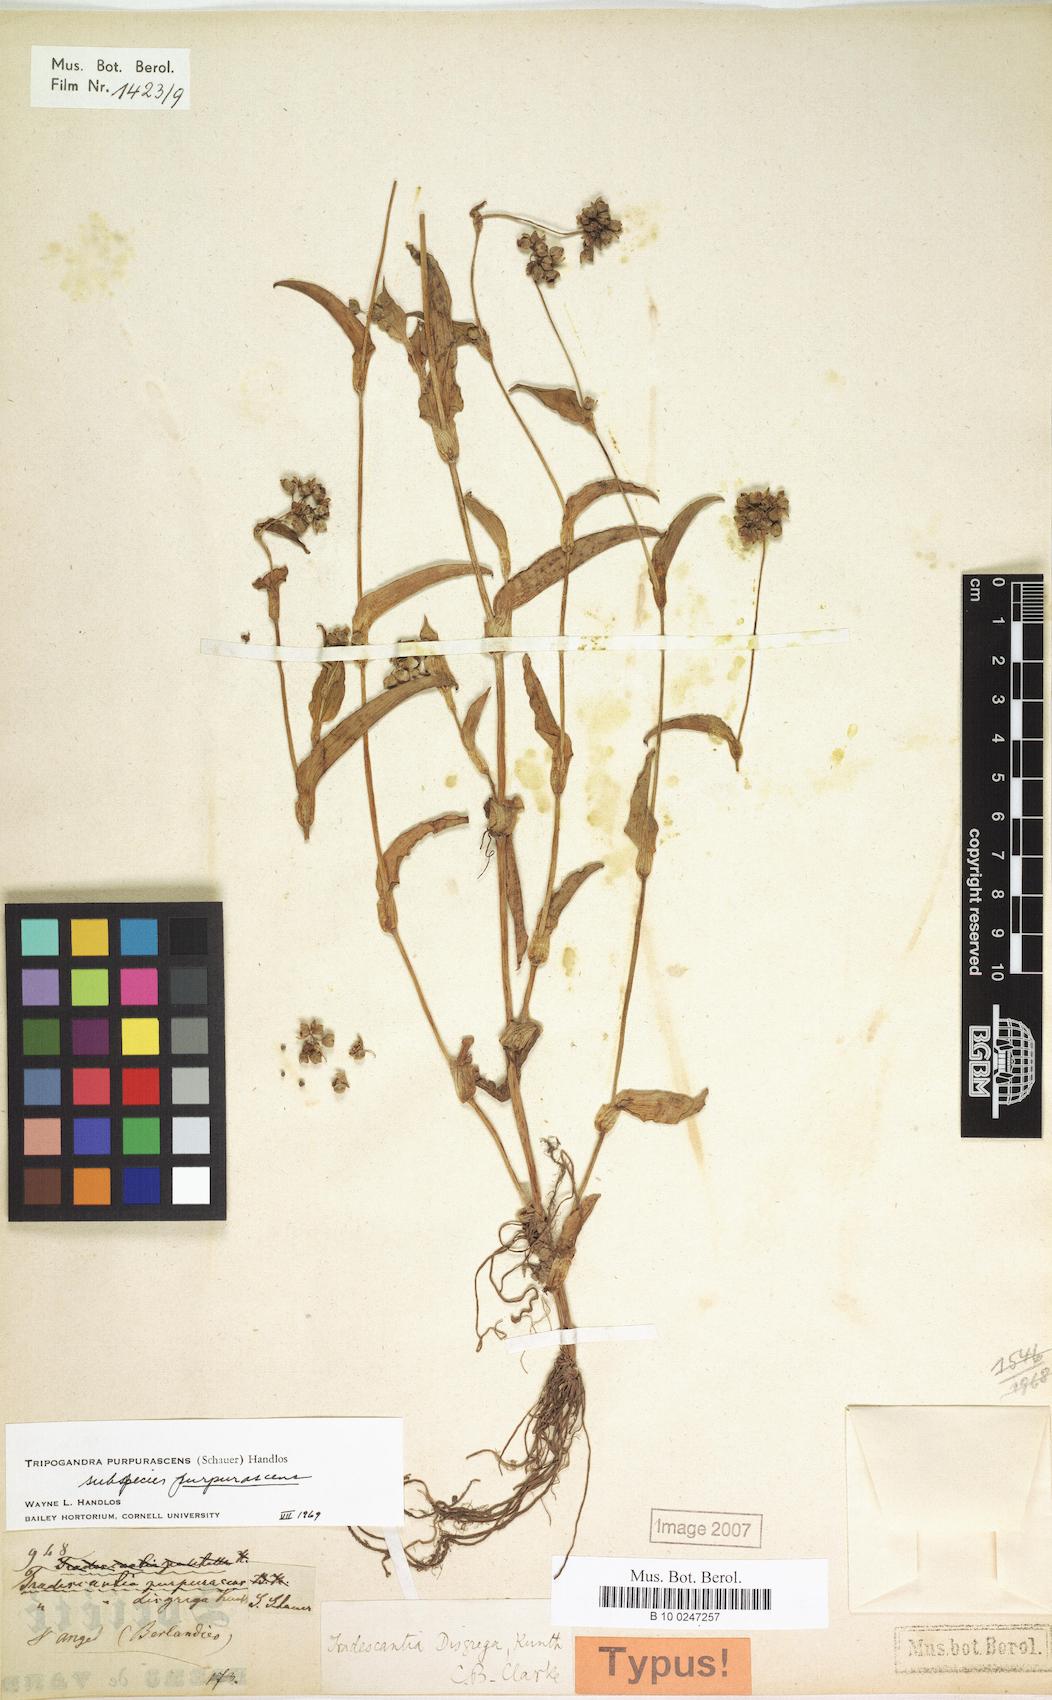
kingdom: Plantae
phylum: Tracheophyta
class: Liliopsida
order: Commelinales
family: Commelinaceae
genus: Callisia
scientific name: Callisia purpurascens
